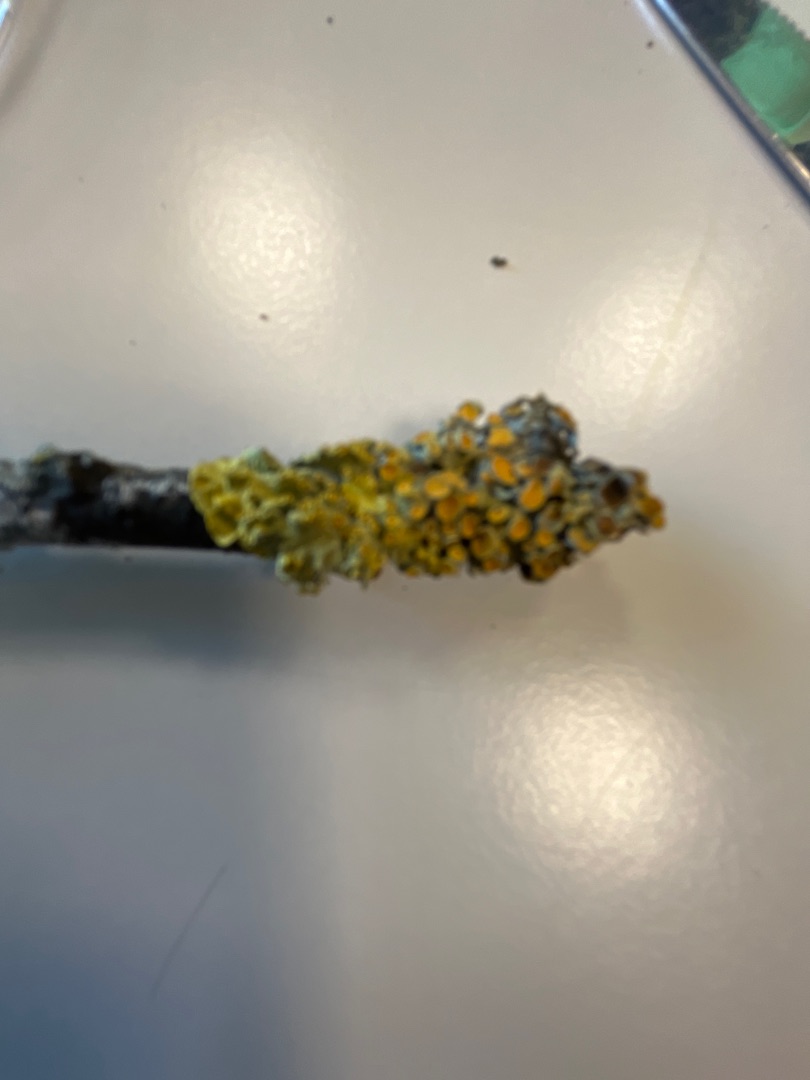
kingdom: Fungi
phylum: Ascomycota
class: Lecanoromycetes
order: Teloschistales
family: Teloschistaceae
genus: Xanthoria
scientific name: Xanthoria parietina
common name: Almindelig væggelav
